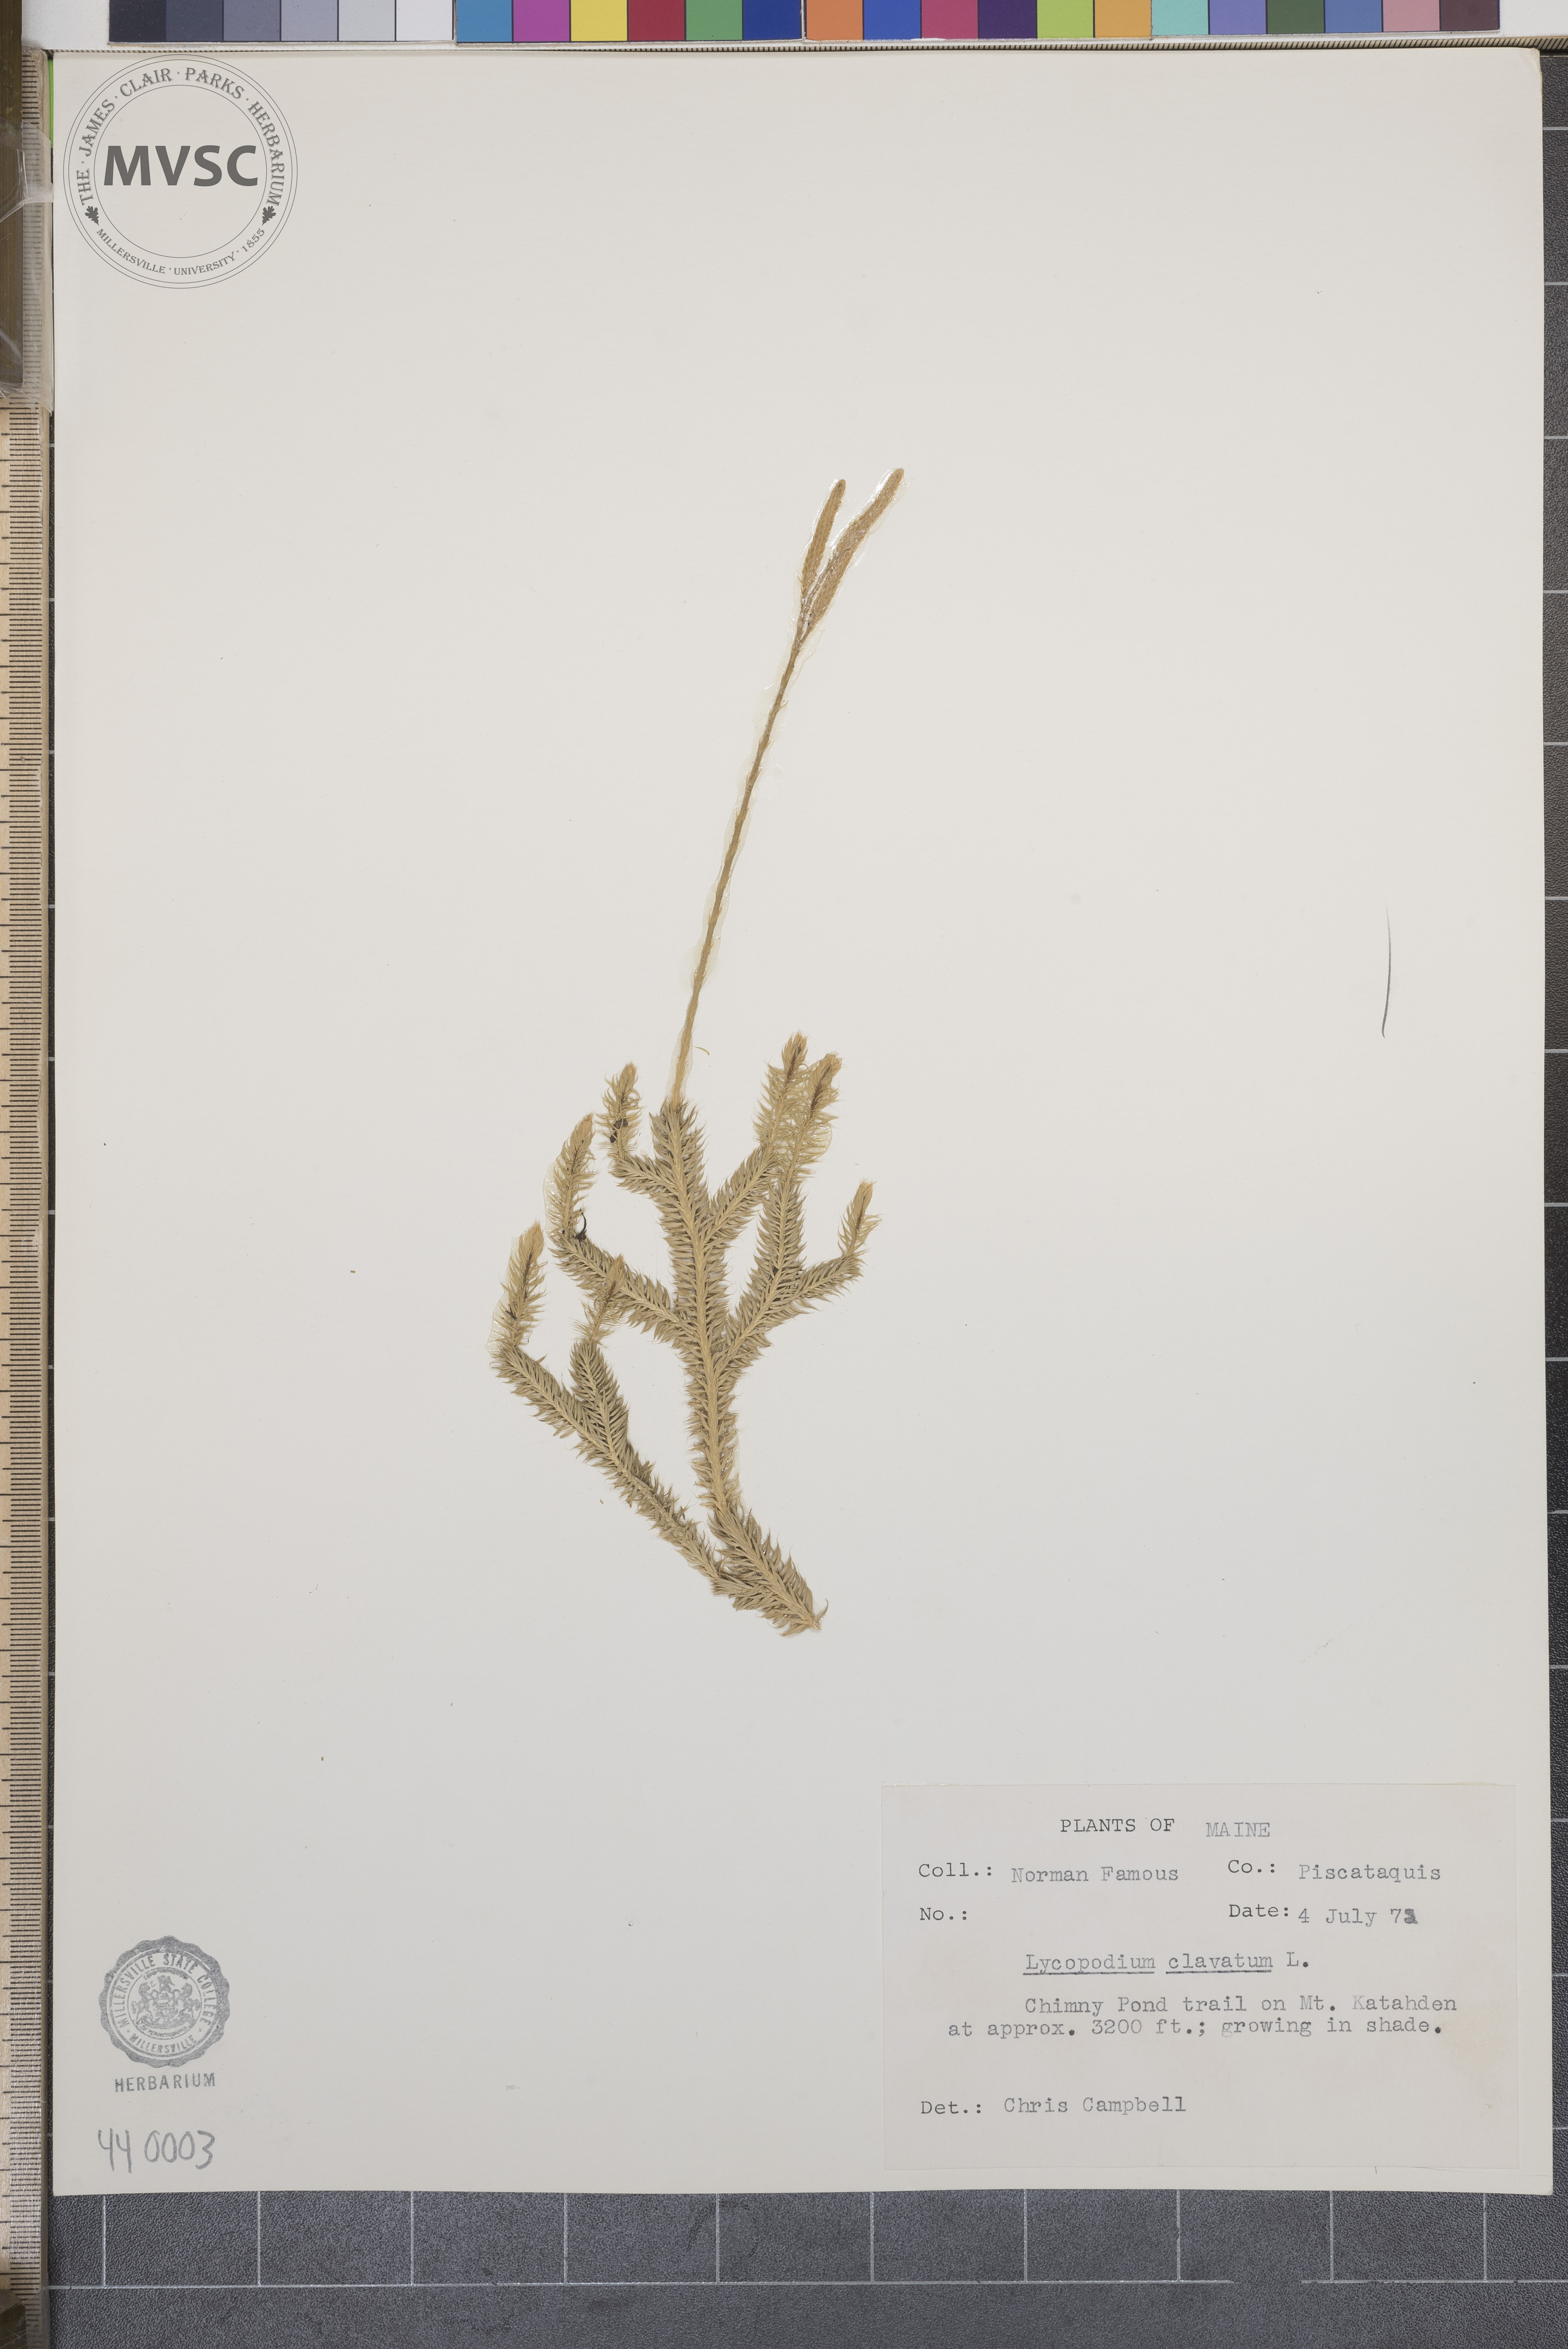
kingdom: Plantae
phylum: Tracheophyta
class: Lycopodiopsida
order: Lycopodiales
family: Lycopodiaceae
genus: Lycopodium
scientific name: Lycopodium clavatum
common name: Stag's-horn clubmoss
